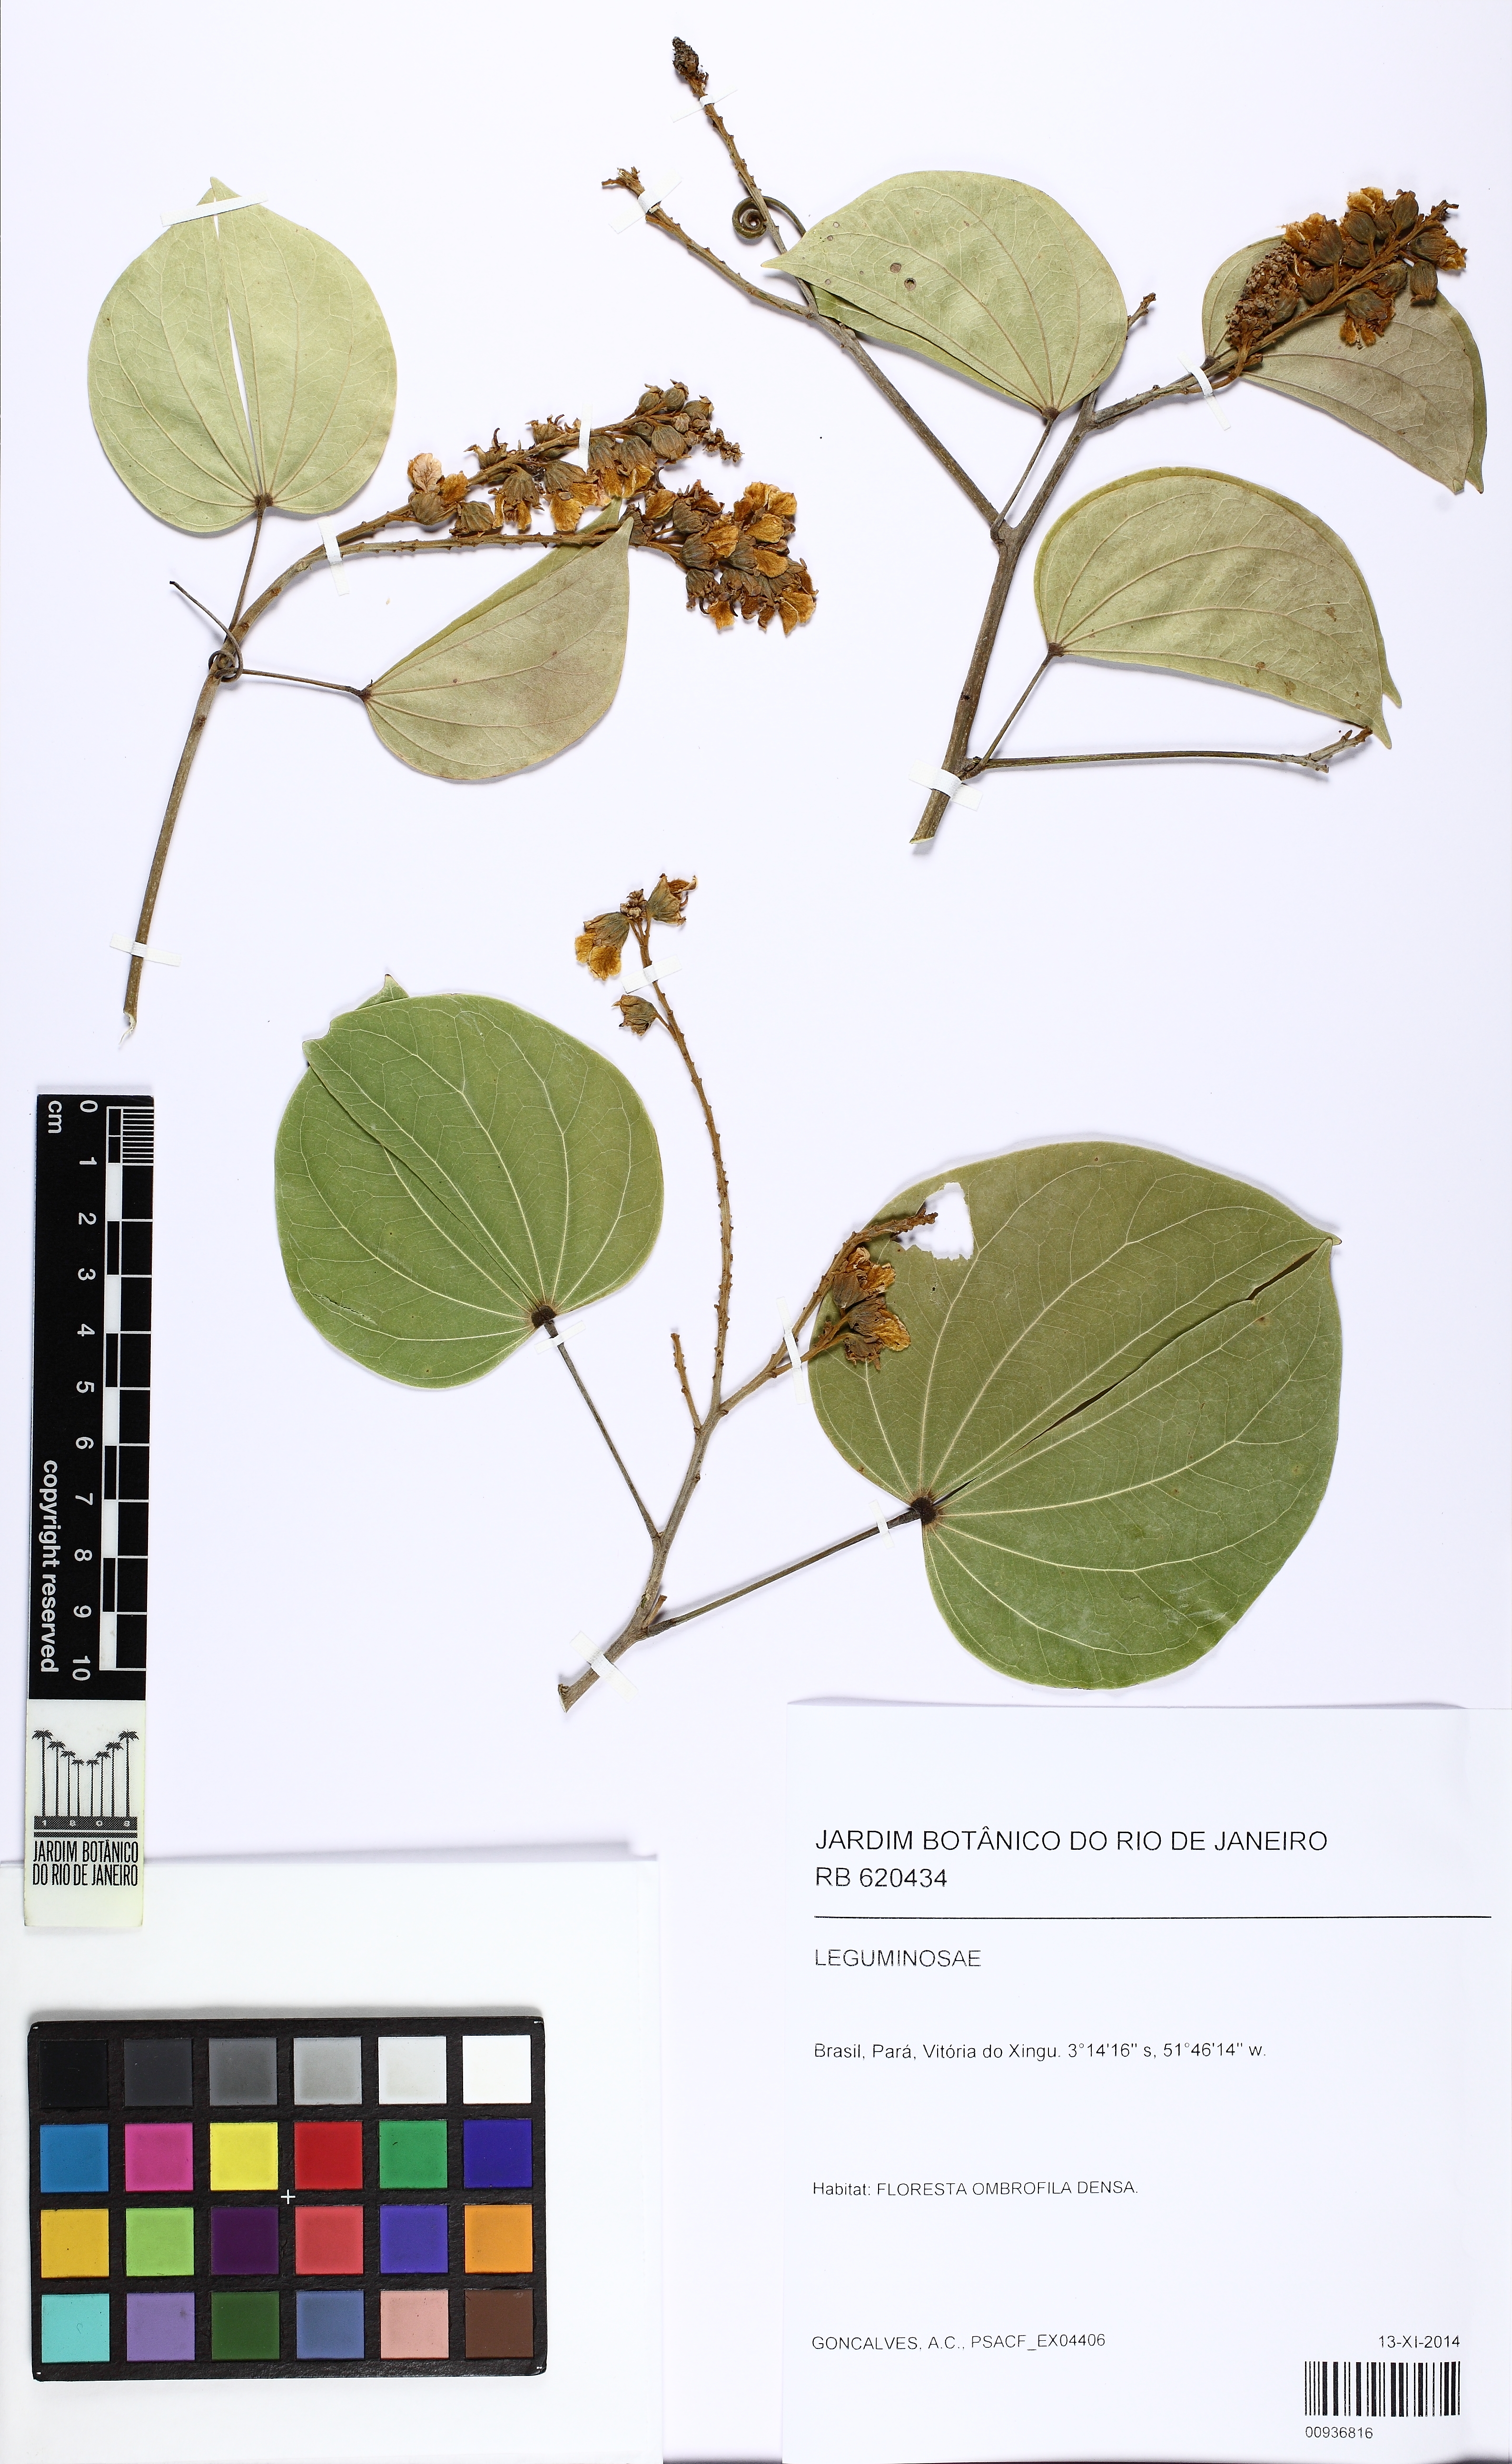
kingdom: Plantae
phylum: Tracheophyta
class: Magnoliopsida
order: Fabales
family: Fabaceae
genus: Schnella
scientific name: Schnella outimouta
